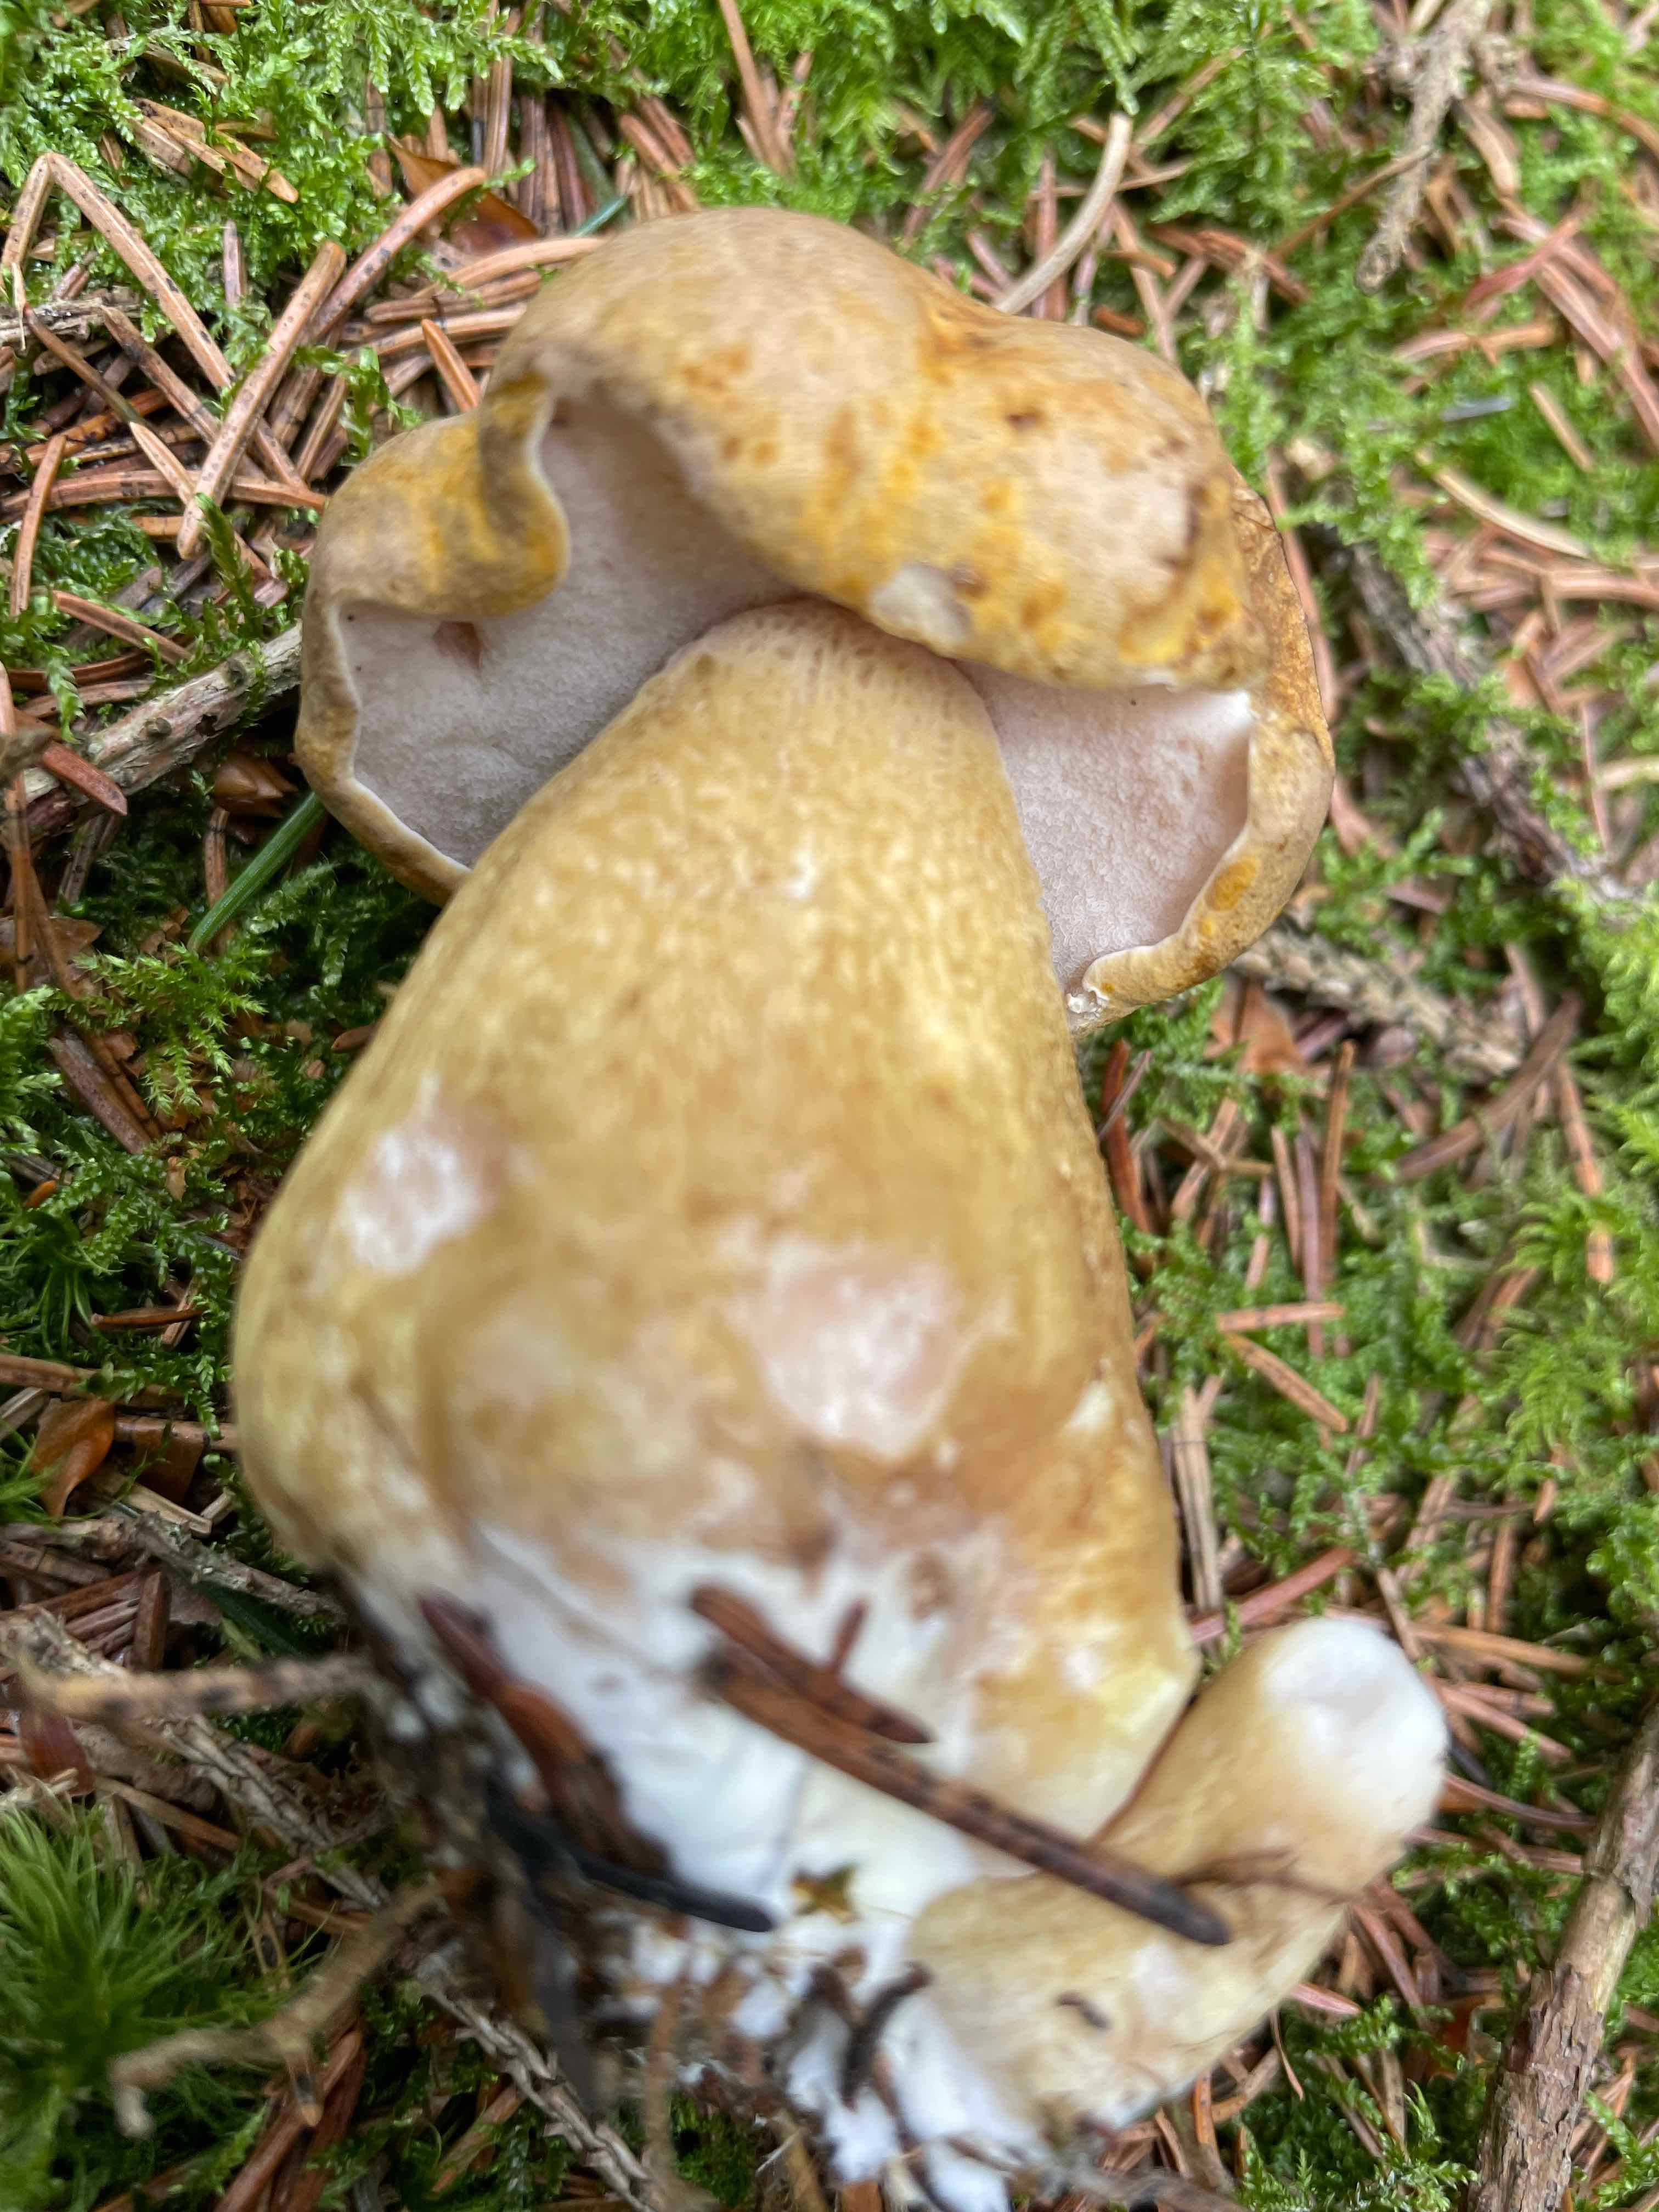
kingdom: Fungi
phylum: Basidiomycota
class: Agaricomycetes
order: Boletales
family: Boletaceae
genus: Tylopilus
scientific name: Tylopilus felleus
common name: galderørhat
